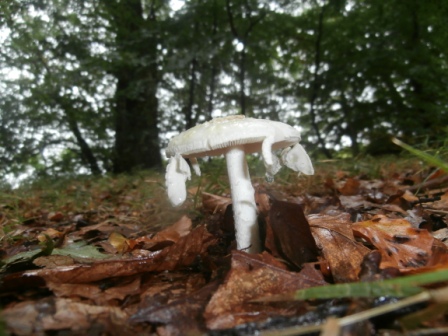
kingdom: Fungi
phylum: Basidiomycota
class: Agaricomycetes
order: Agaricales
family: Amanitaceae
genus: Amanita
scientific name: Amanita citrina
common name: False death-cap
